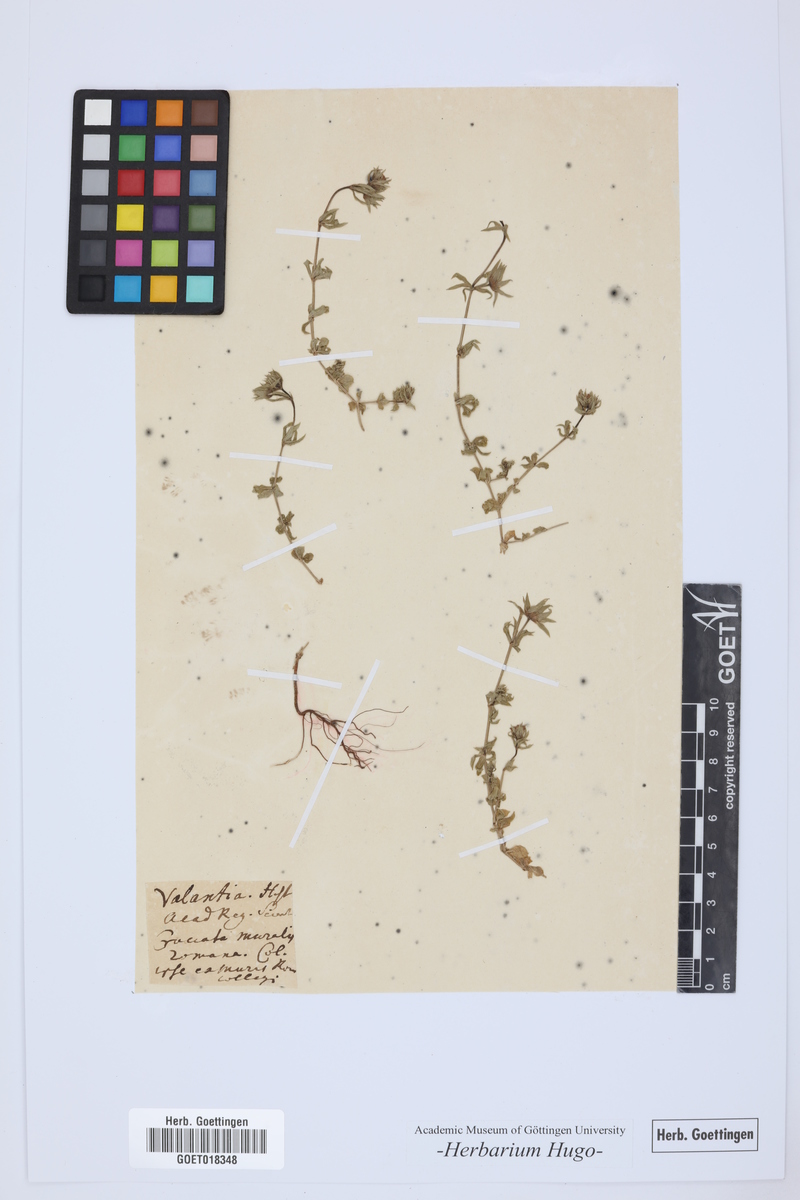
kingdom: Plantae
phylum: Tracheophyta
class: Magnoliopsida
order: Gentianales
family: Rubiaceae
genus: Valantia
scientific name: Valantia muralis
